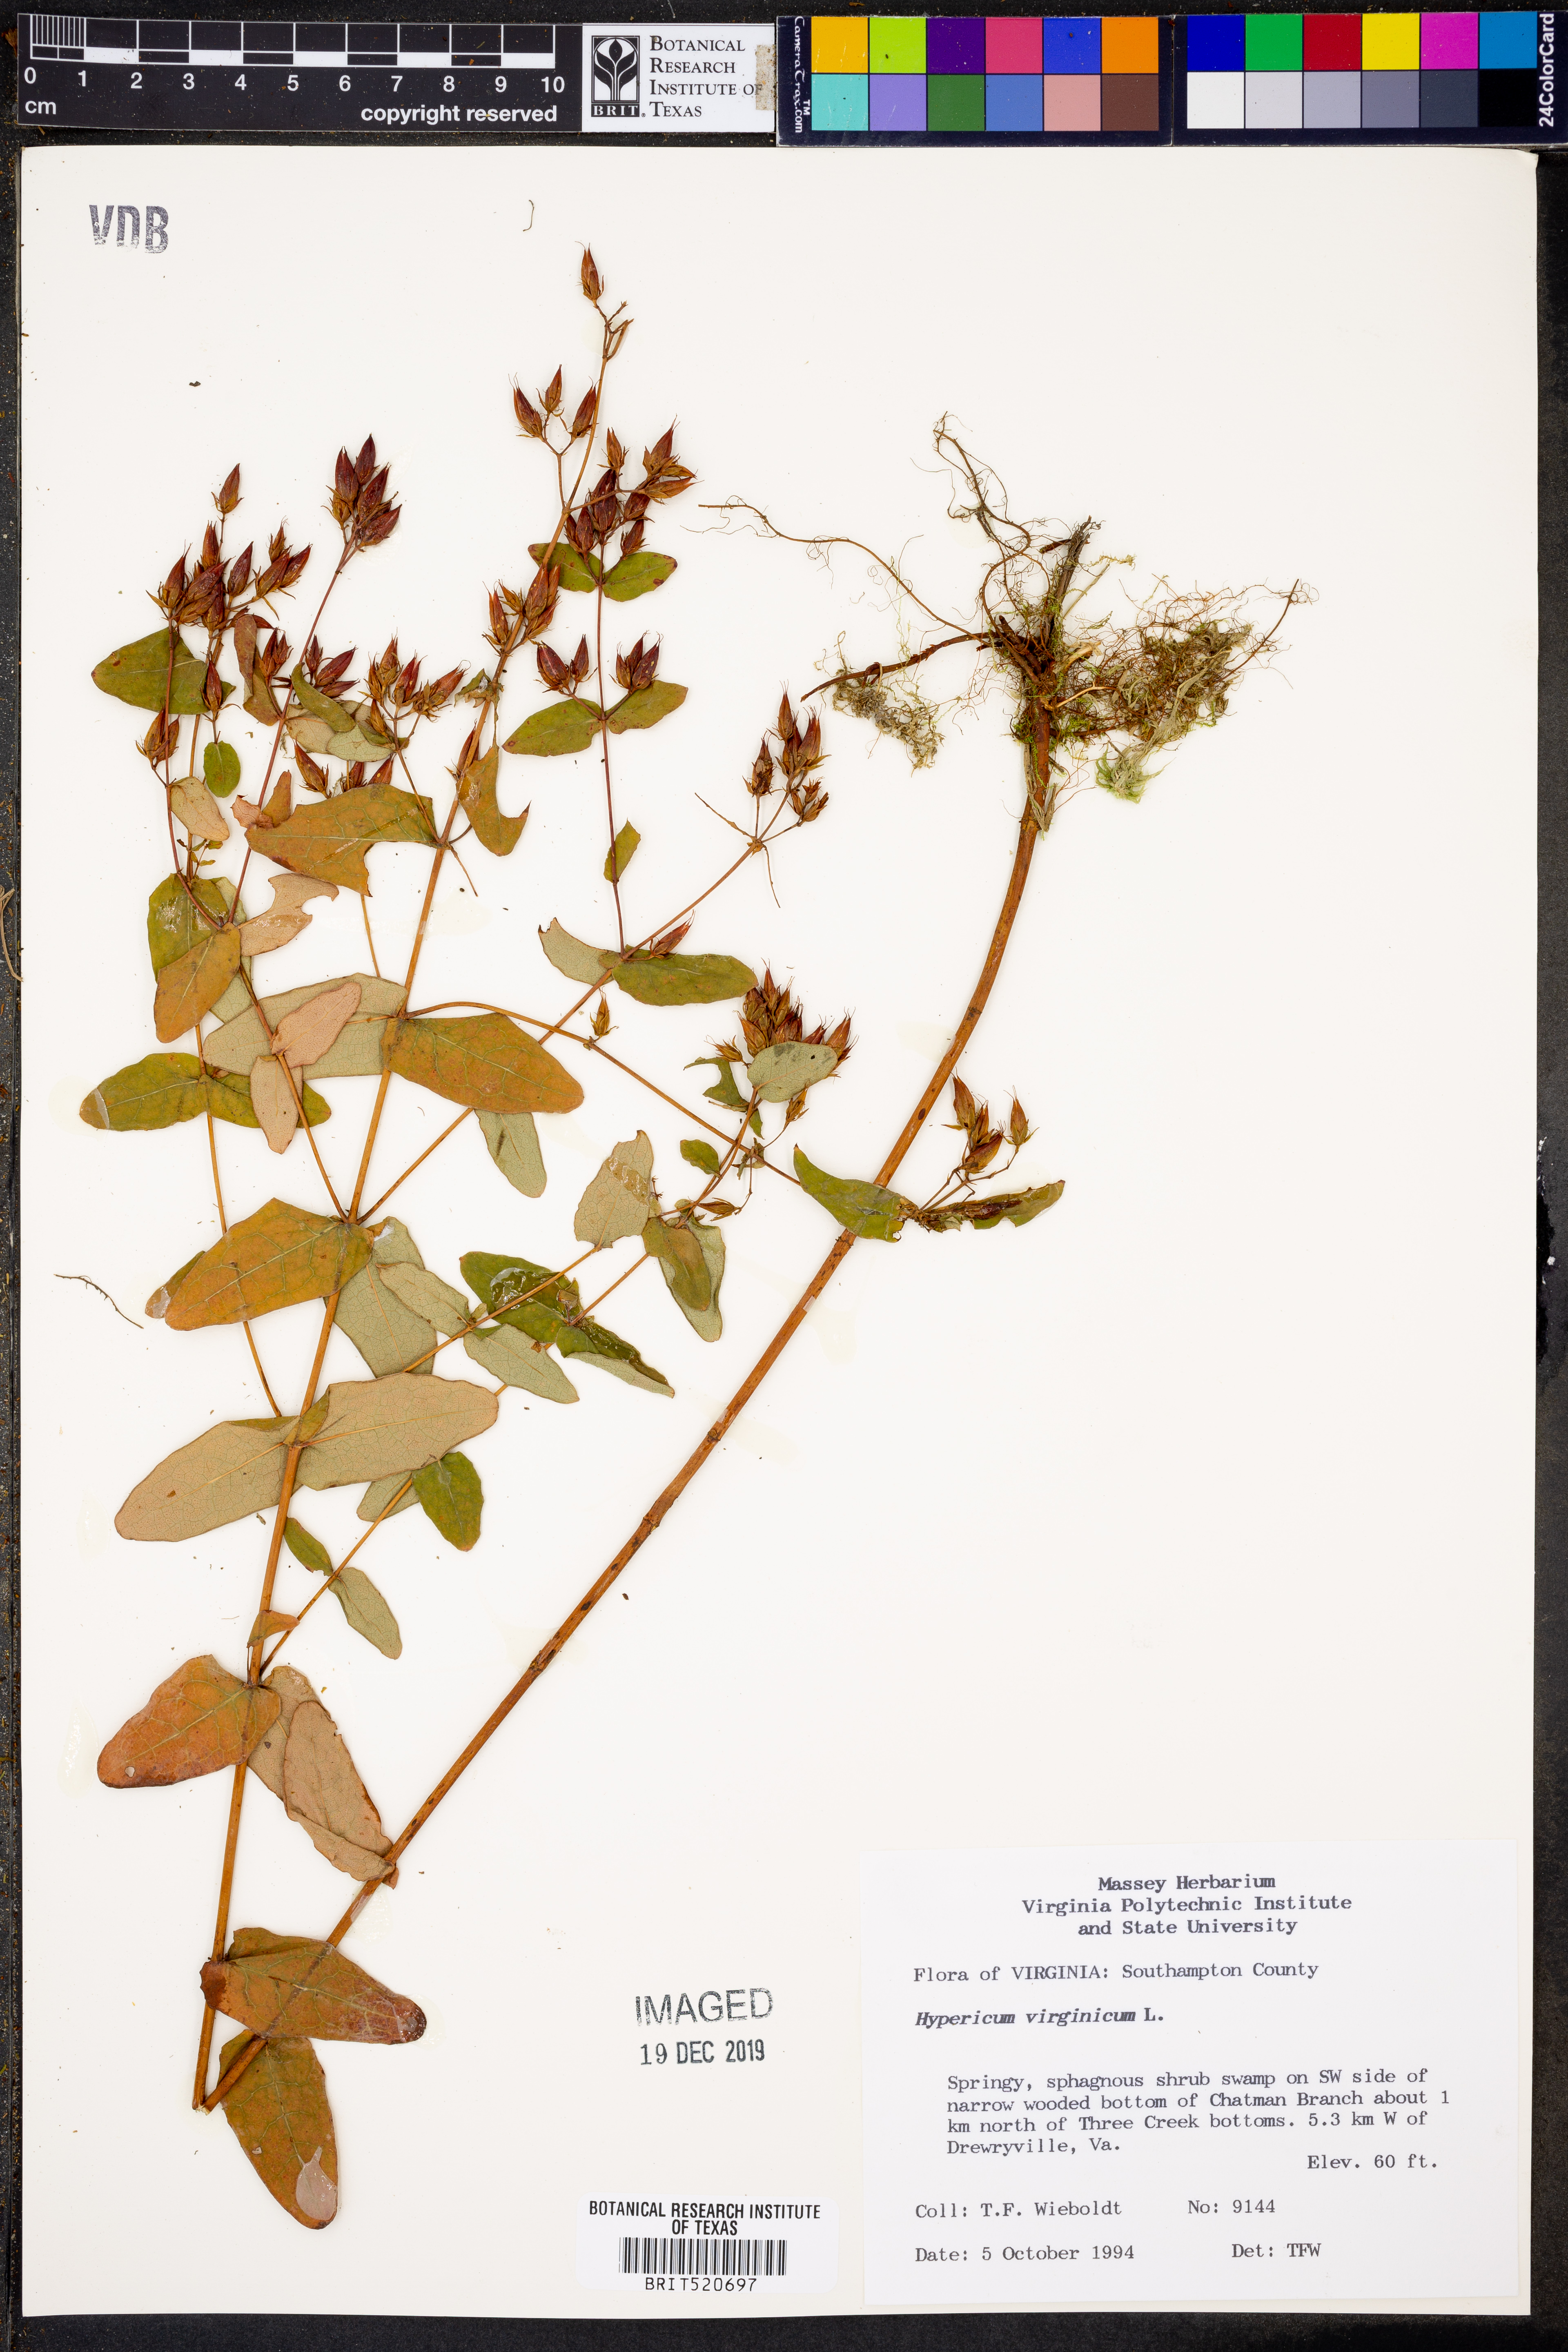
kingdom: Plantae
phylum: Tracheophyta
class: Magnoliopsida
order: Malpighiales
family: Hypericaceae
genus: Triadenum
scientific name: Triadenum virginicum
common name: Marsh st. john's-wort
